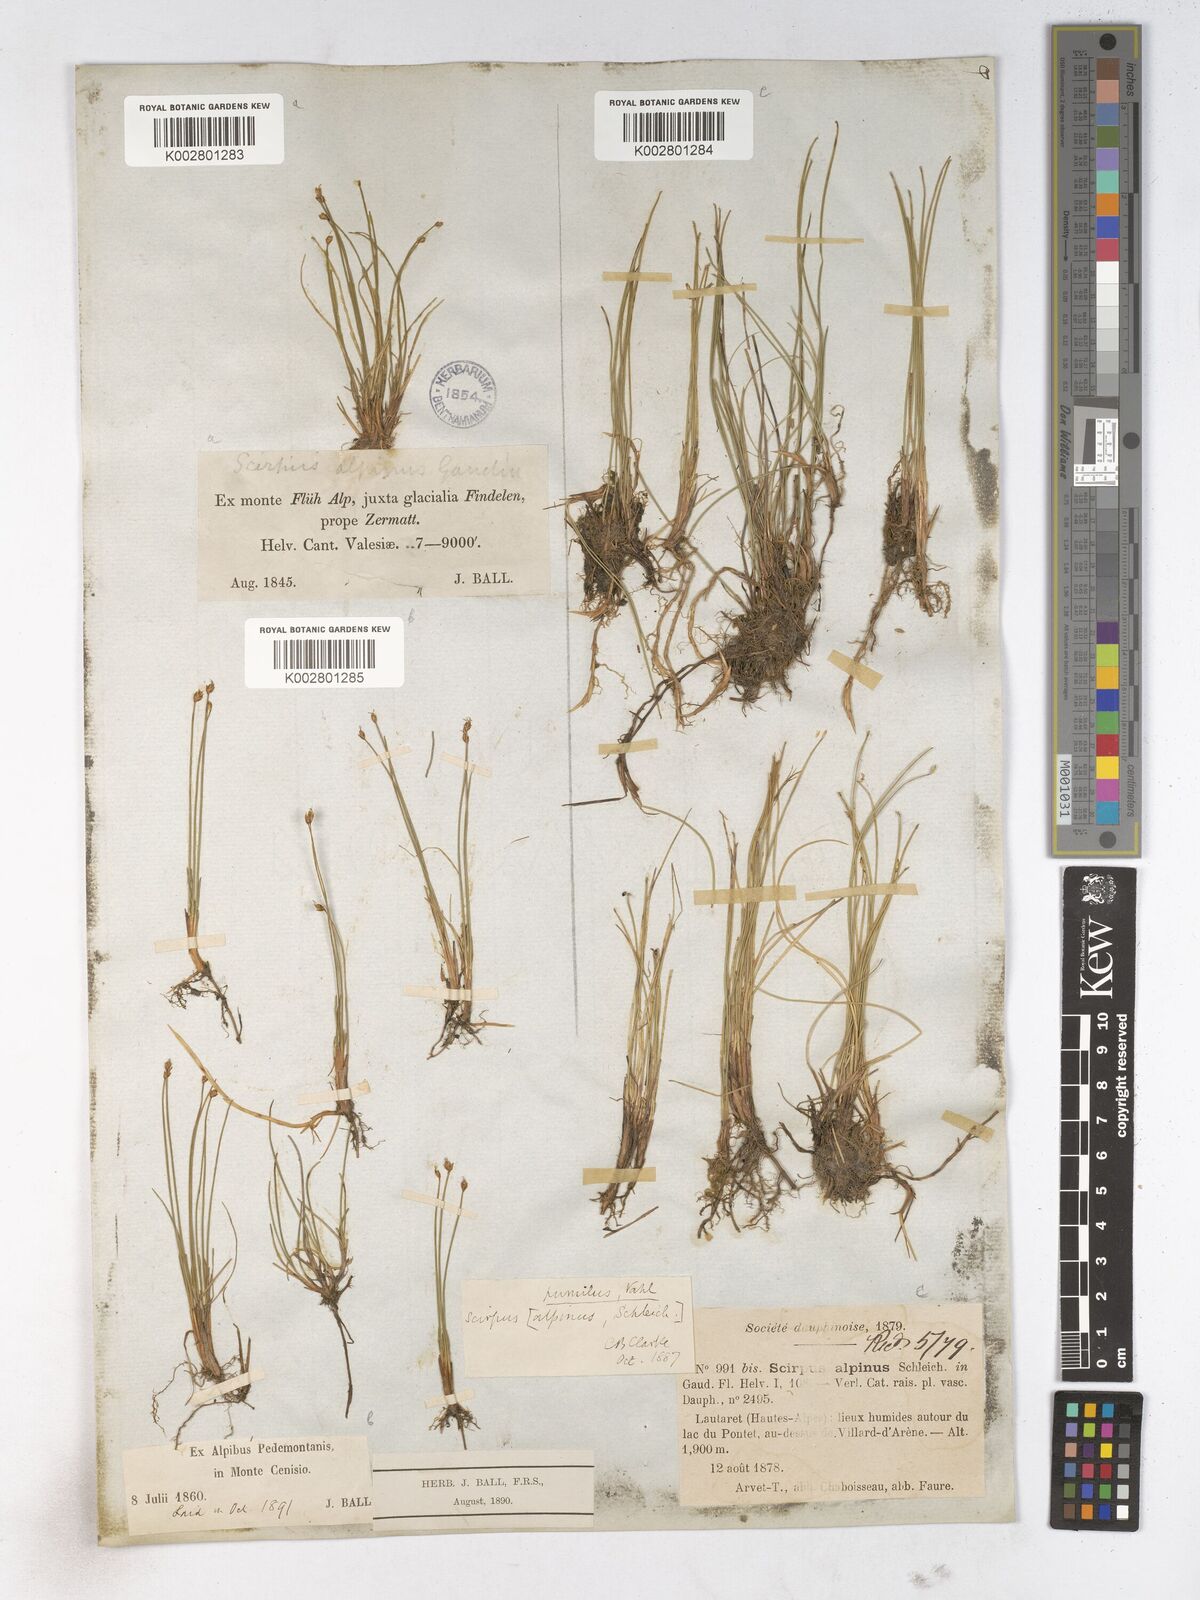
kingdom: Plantae
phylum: Tracheophyta
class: Liliopsida
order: Poales
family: Cyperaceae
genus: Trichophorum
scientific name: Trichophorum pumilum
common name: Rolland's bulrush
